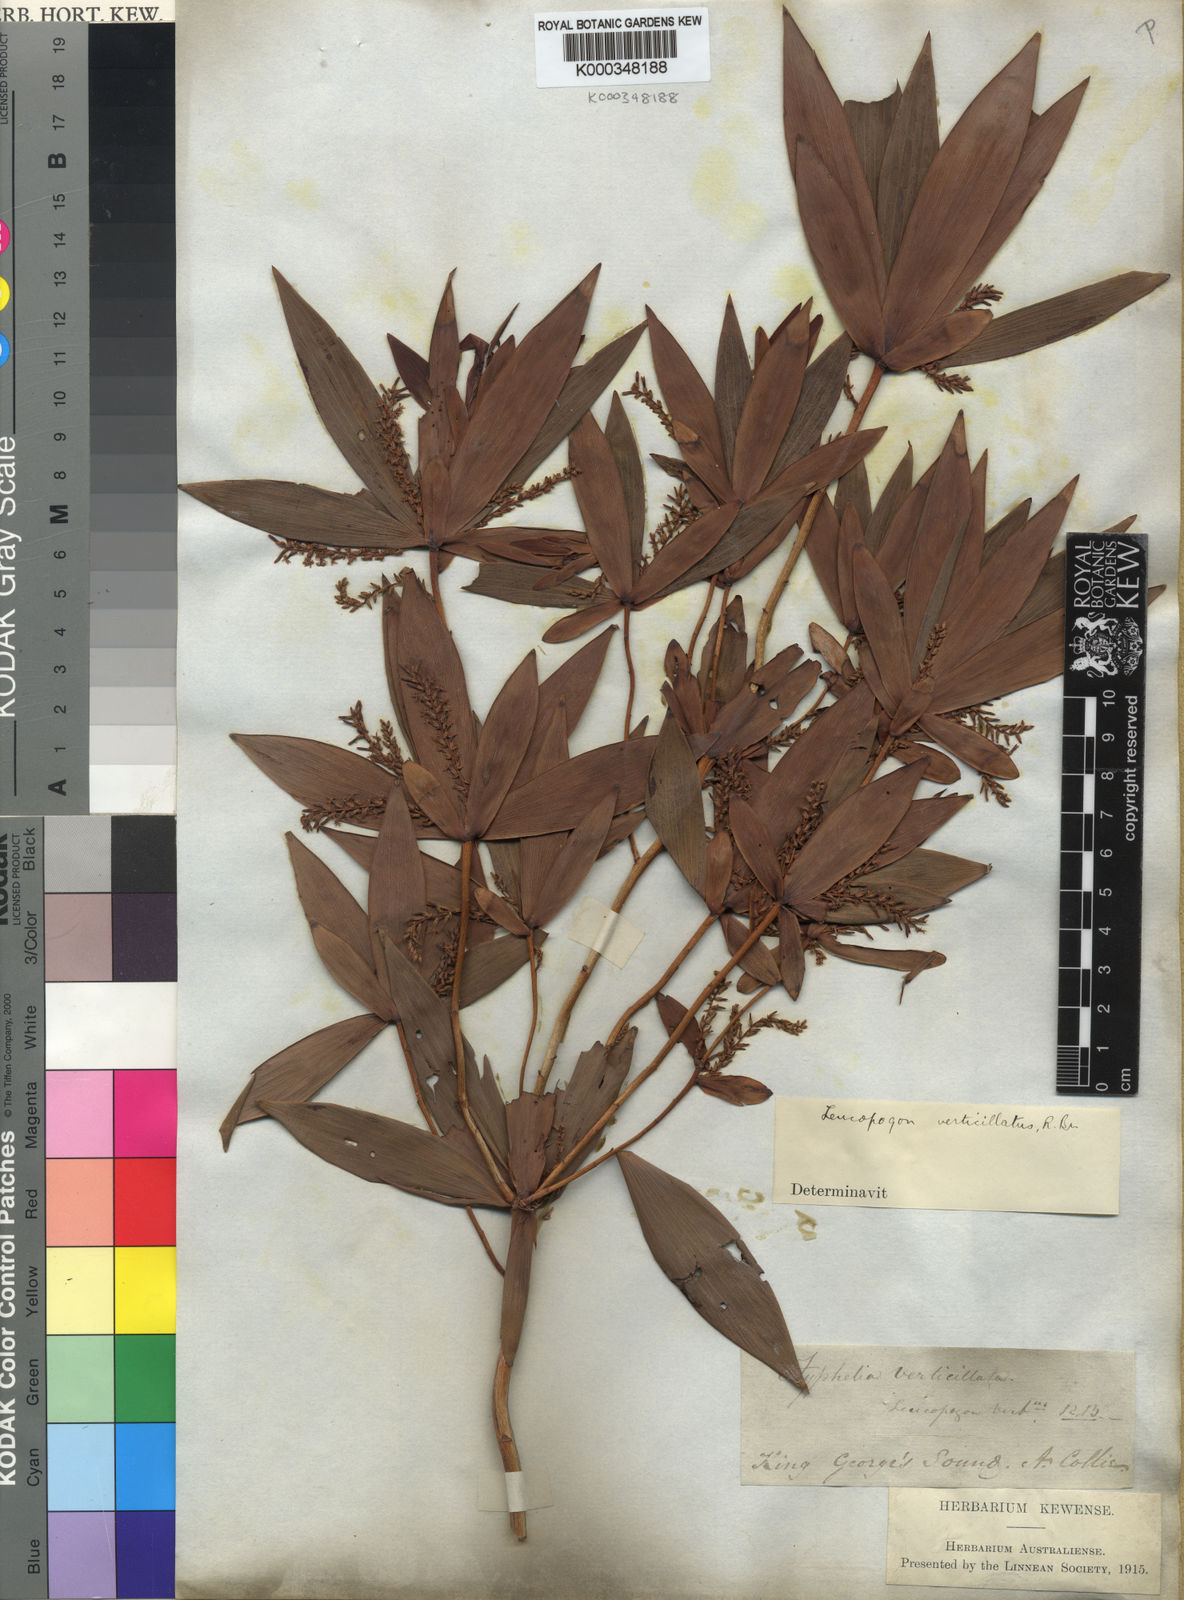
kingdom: Plantae
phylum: Tracheophyta
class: Magnoliopsida
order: Ericales
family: Ericaceae
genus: Leucopogon
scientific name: Leucopogon verticillatus
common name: Tasselshrub
